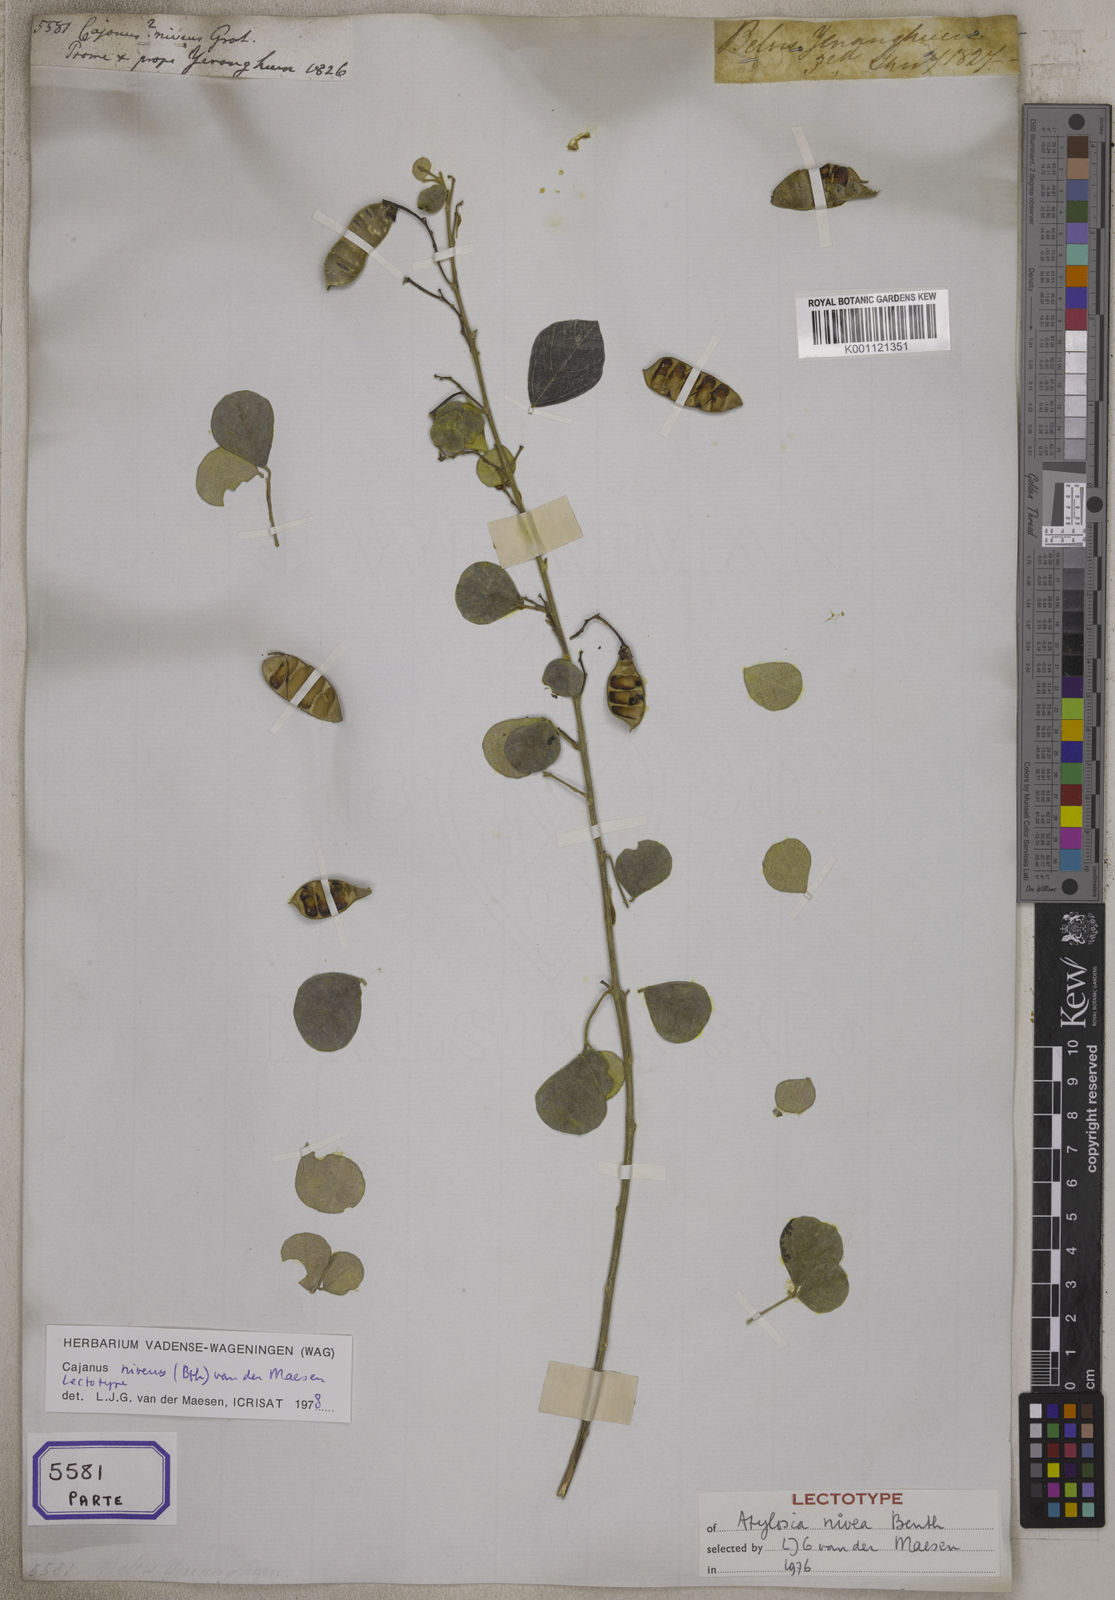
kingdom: Plantae
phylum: Tracheophyta
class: Magnoliopsida
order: Fabales
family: Fabaceae
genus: Cajanus
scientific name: Cajanus
